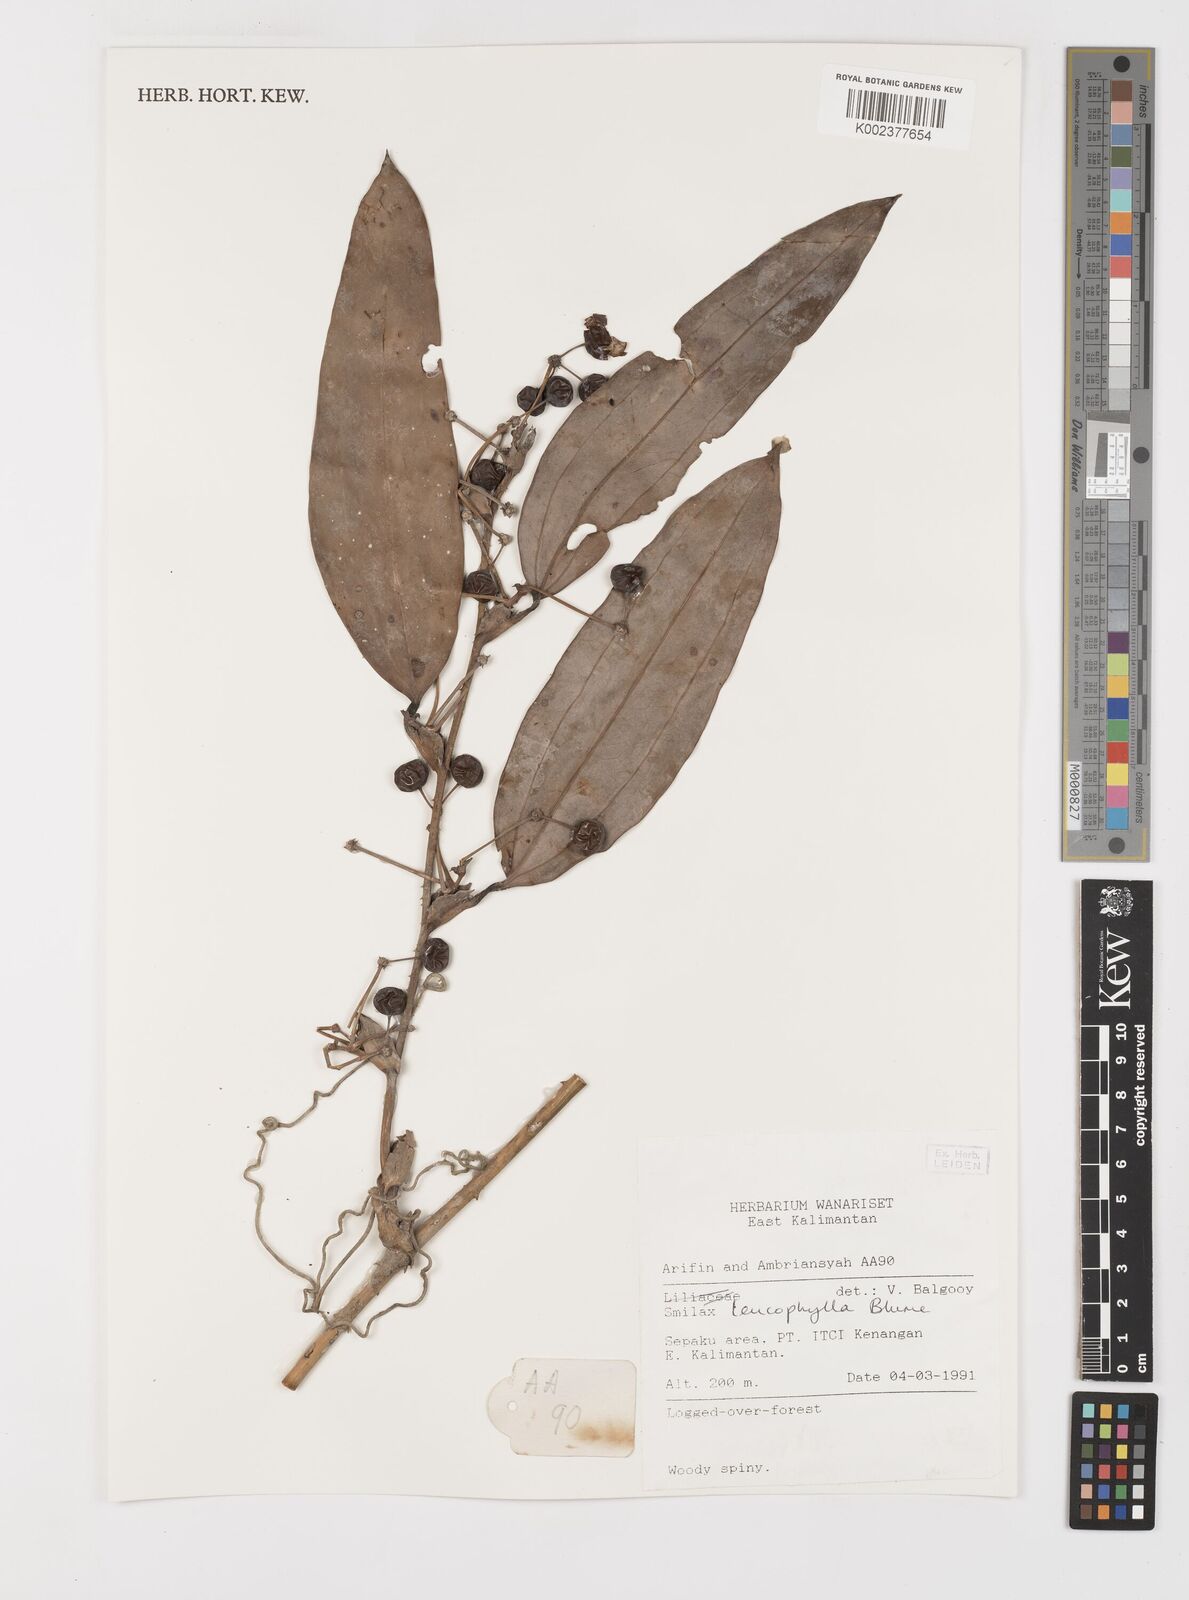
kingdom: Plantae
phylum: Tracheophyta
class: Liliopsida
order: Liliales
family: Smilacaceae
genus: Smilax
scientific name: Smilax leucophylla
